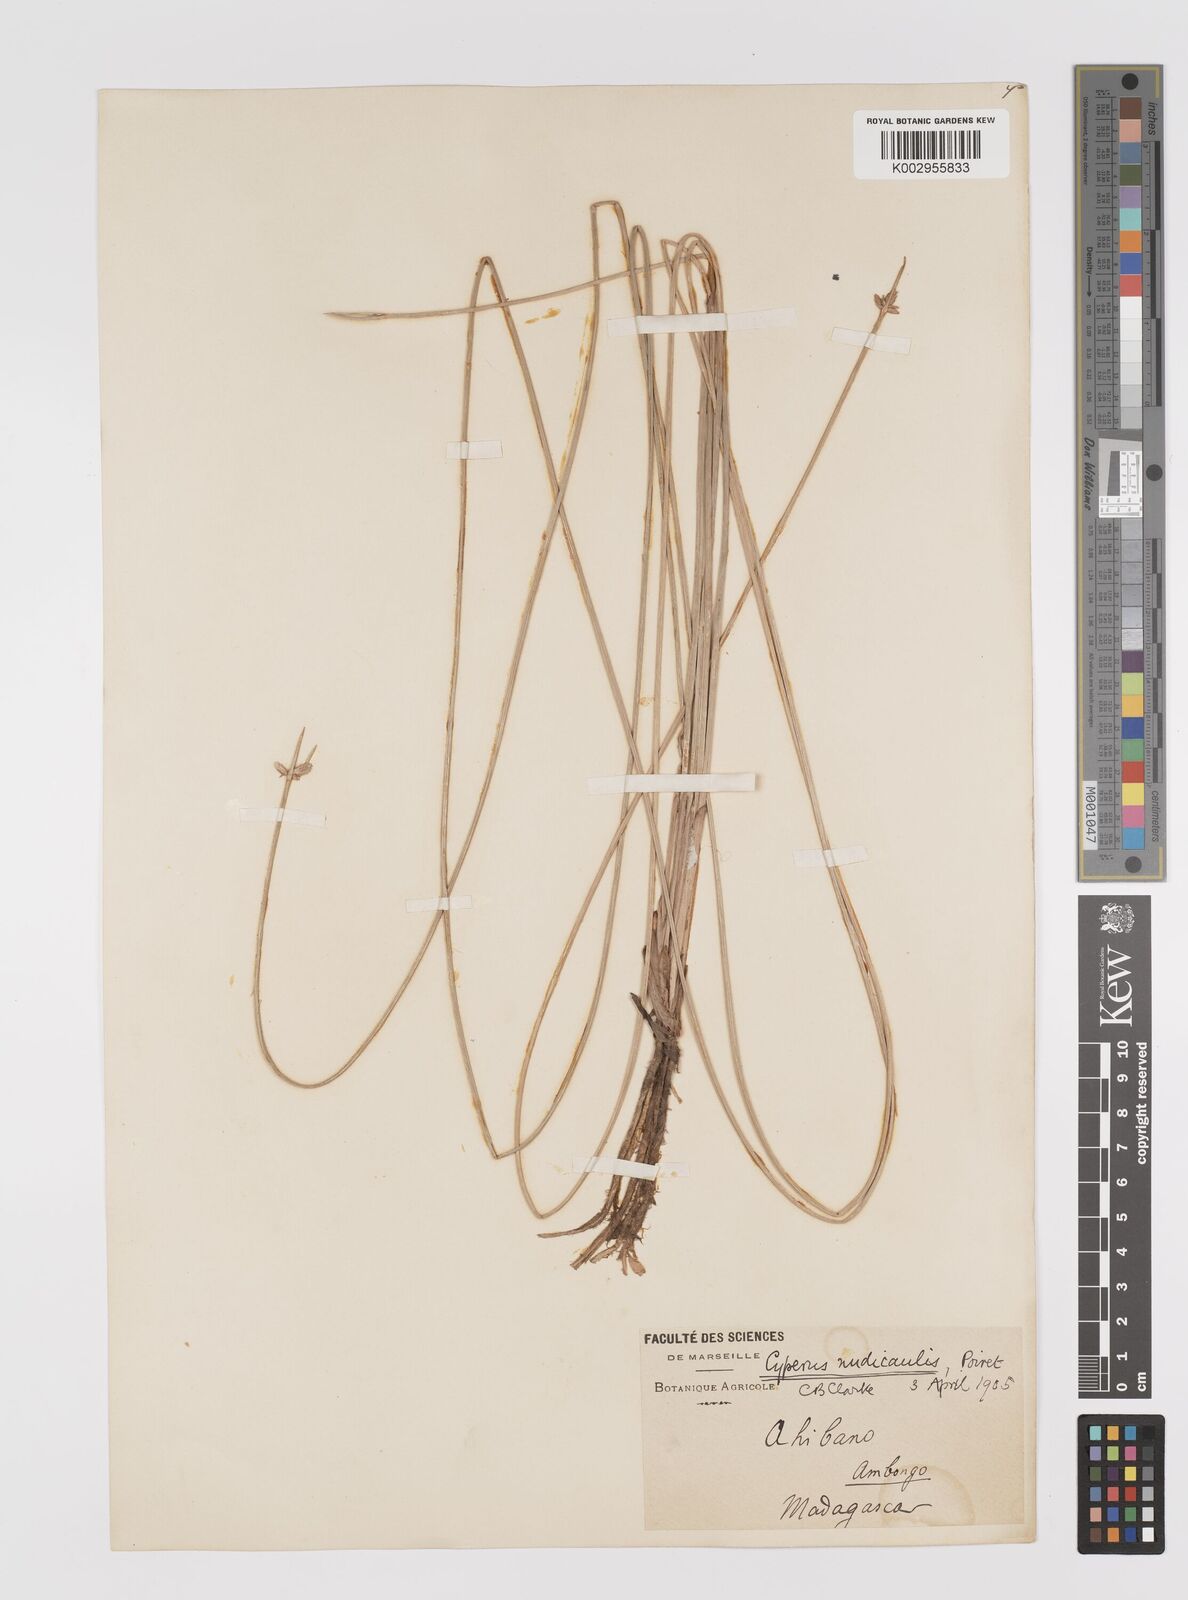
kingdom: Plantae
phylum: Tracheophyta
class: Liliopsida
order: Poales
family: Cyperaceae
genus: Cyperus
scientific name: Cyperus compressus
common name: Poorland flatsedge
